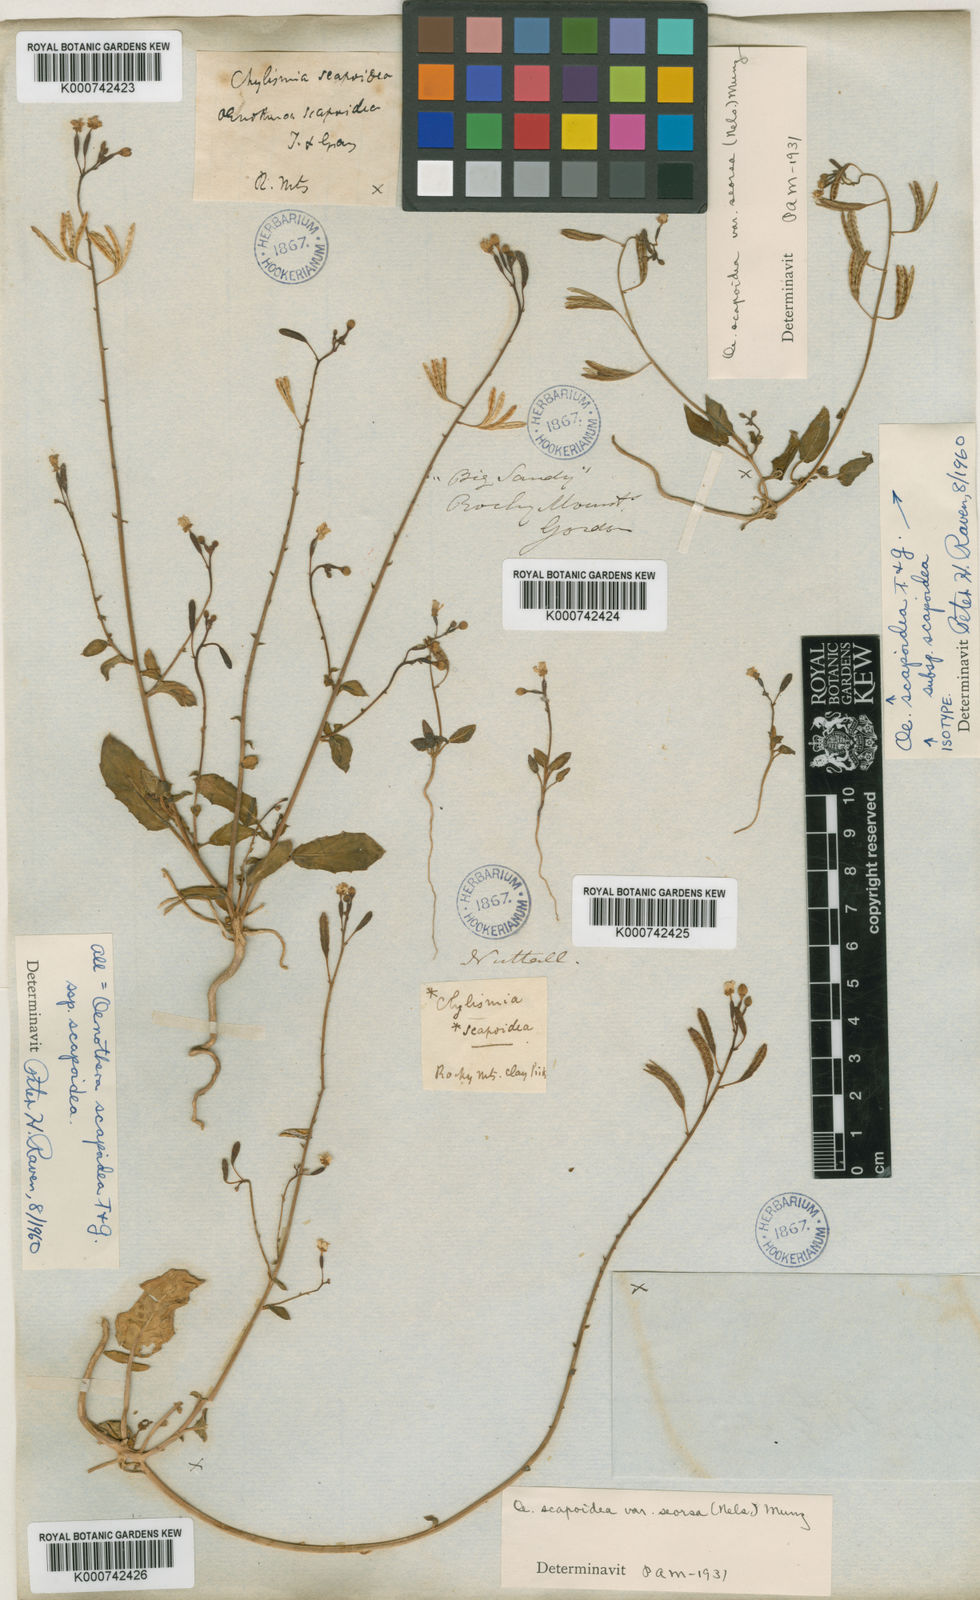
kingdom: Plantae
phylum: Tracheophyta
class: Magnoliopsida
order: Myrtales
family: Onagraceae
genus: Chylismia
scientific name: Chylismia scapoidea
